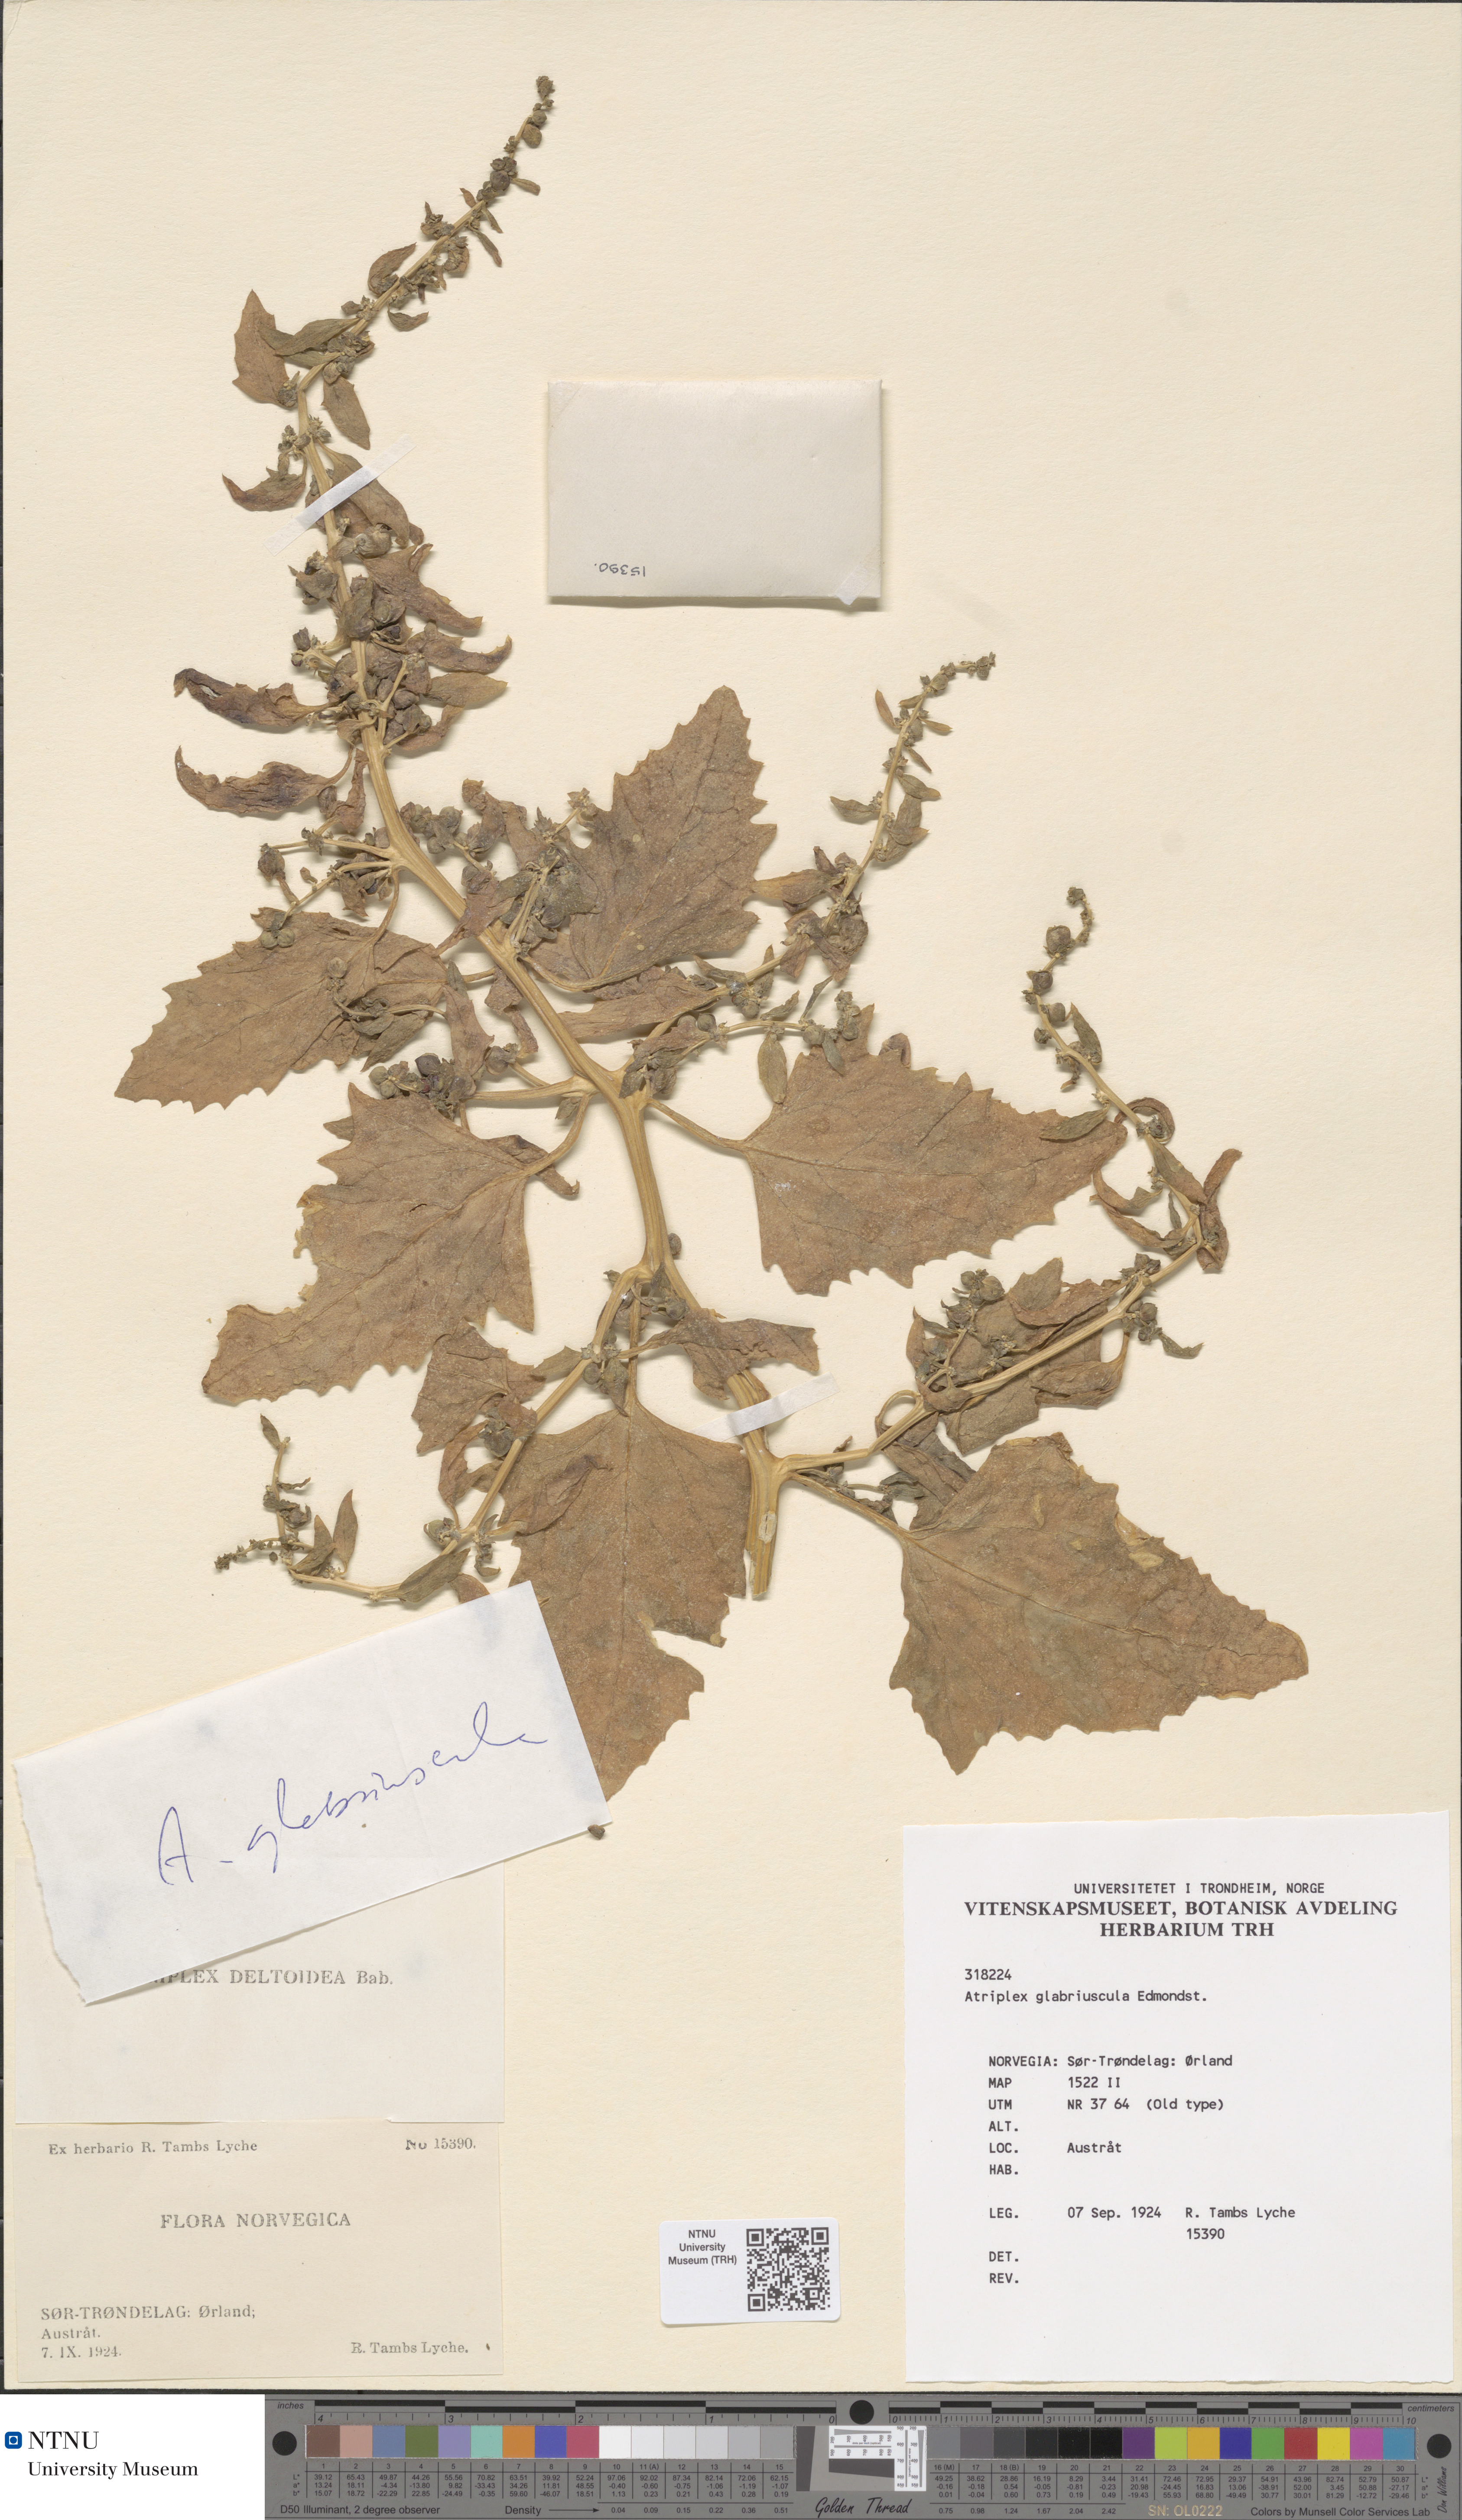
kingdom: Plantae
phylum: Tracheophyta
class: Magnoliopsida
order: Caryophyllales
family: Amaranthaceae
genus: Atriplex
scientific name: Atriplex glabriuscula
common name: Babington's orache
